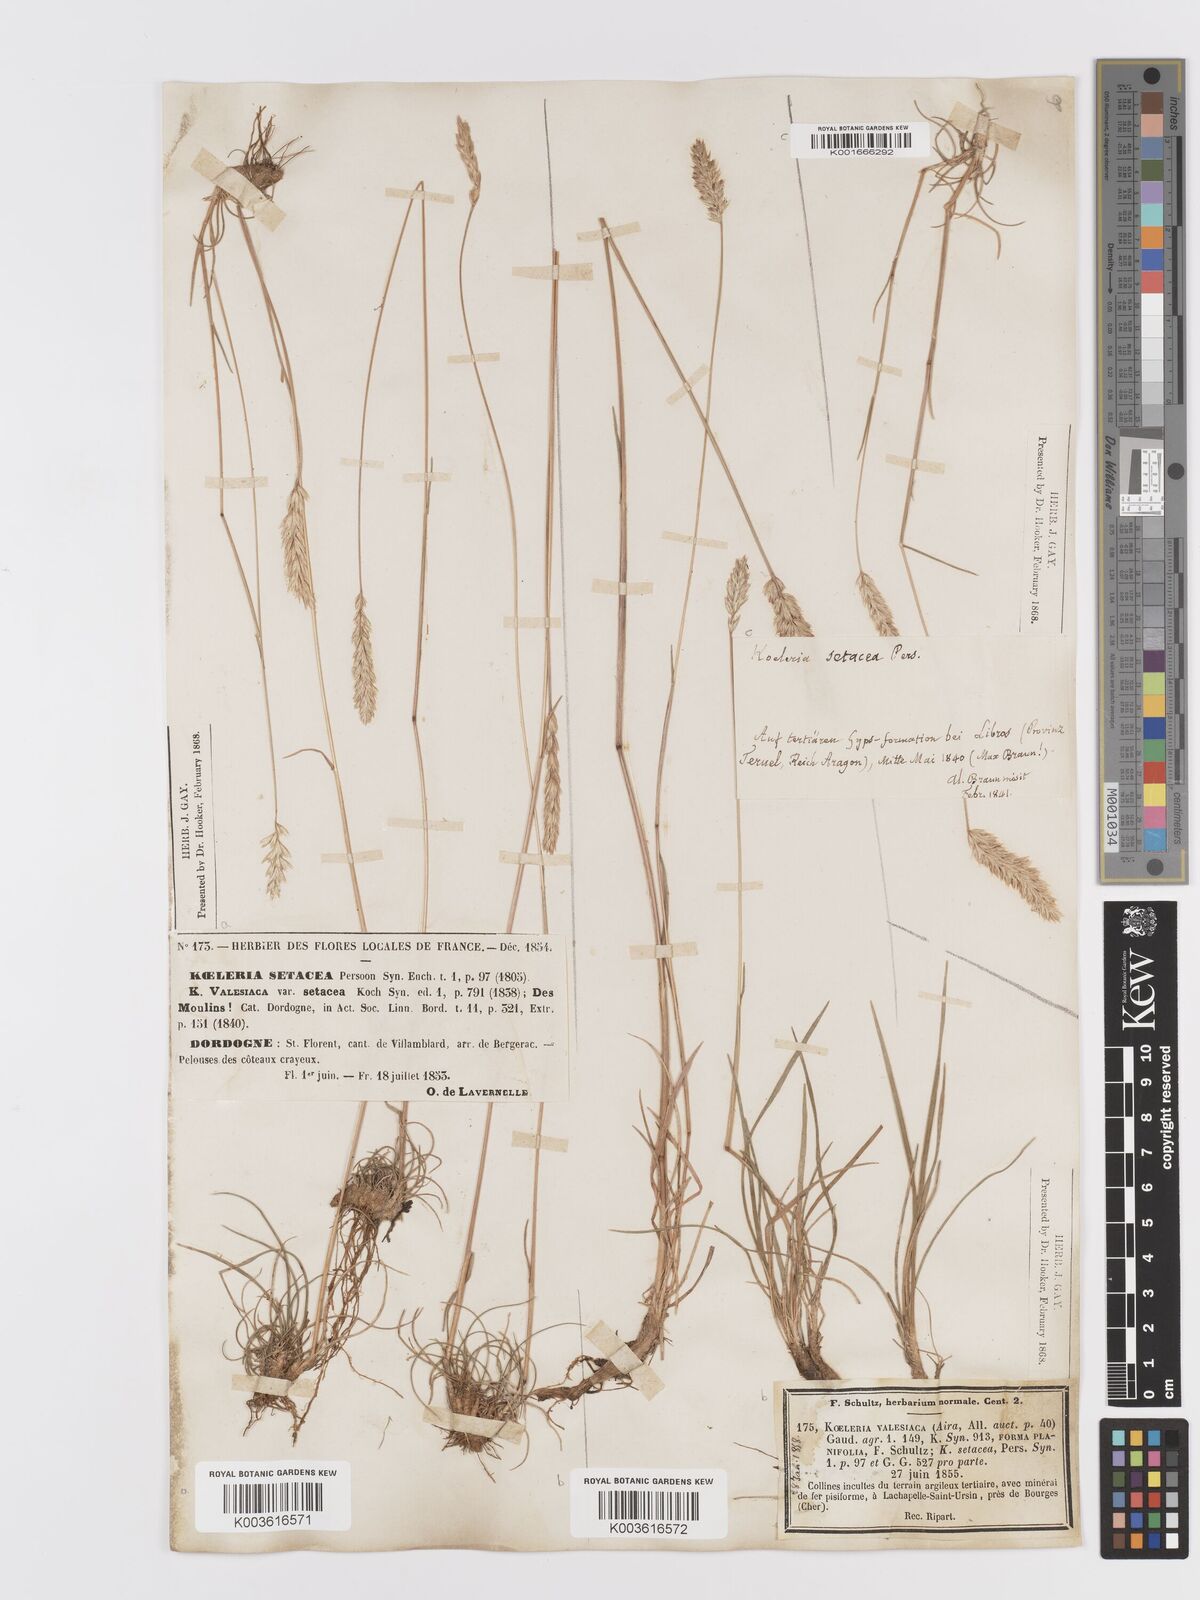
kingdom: Plantae
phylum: Tracheophyta
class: Liliopsida
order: Poales
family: Poaceae
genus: Koeleria
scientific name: Koeleria vallesiana
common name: Somerset hair-grass
